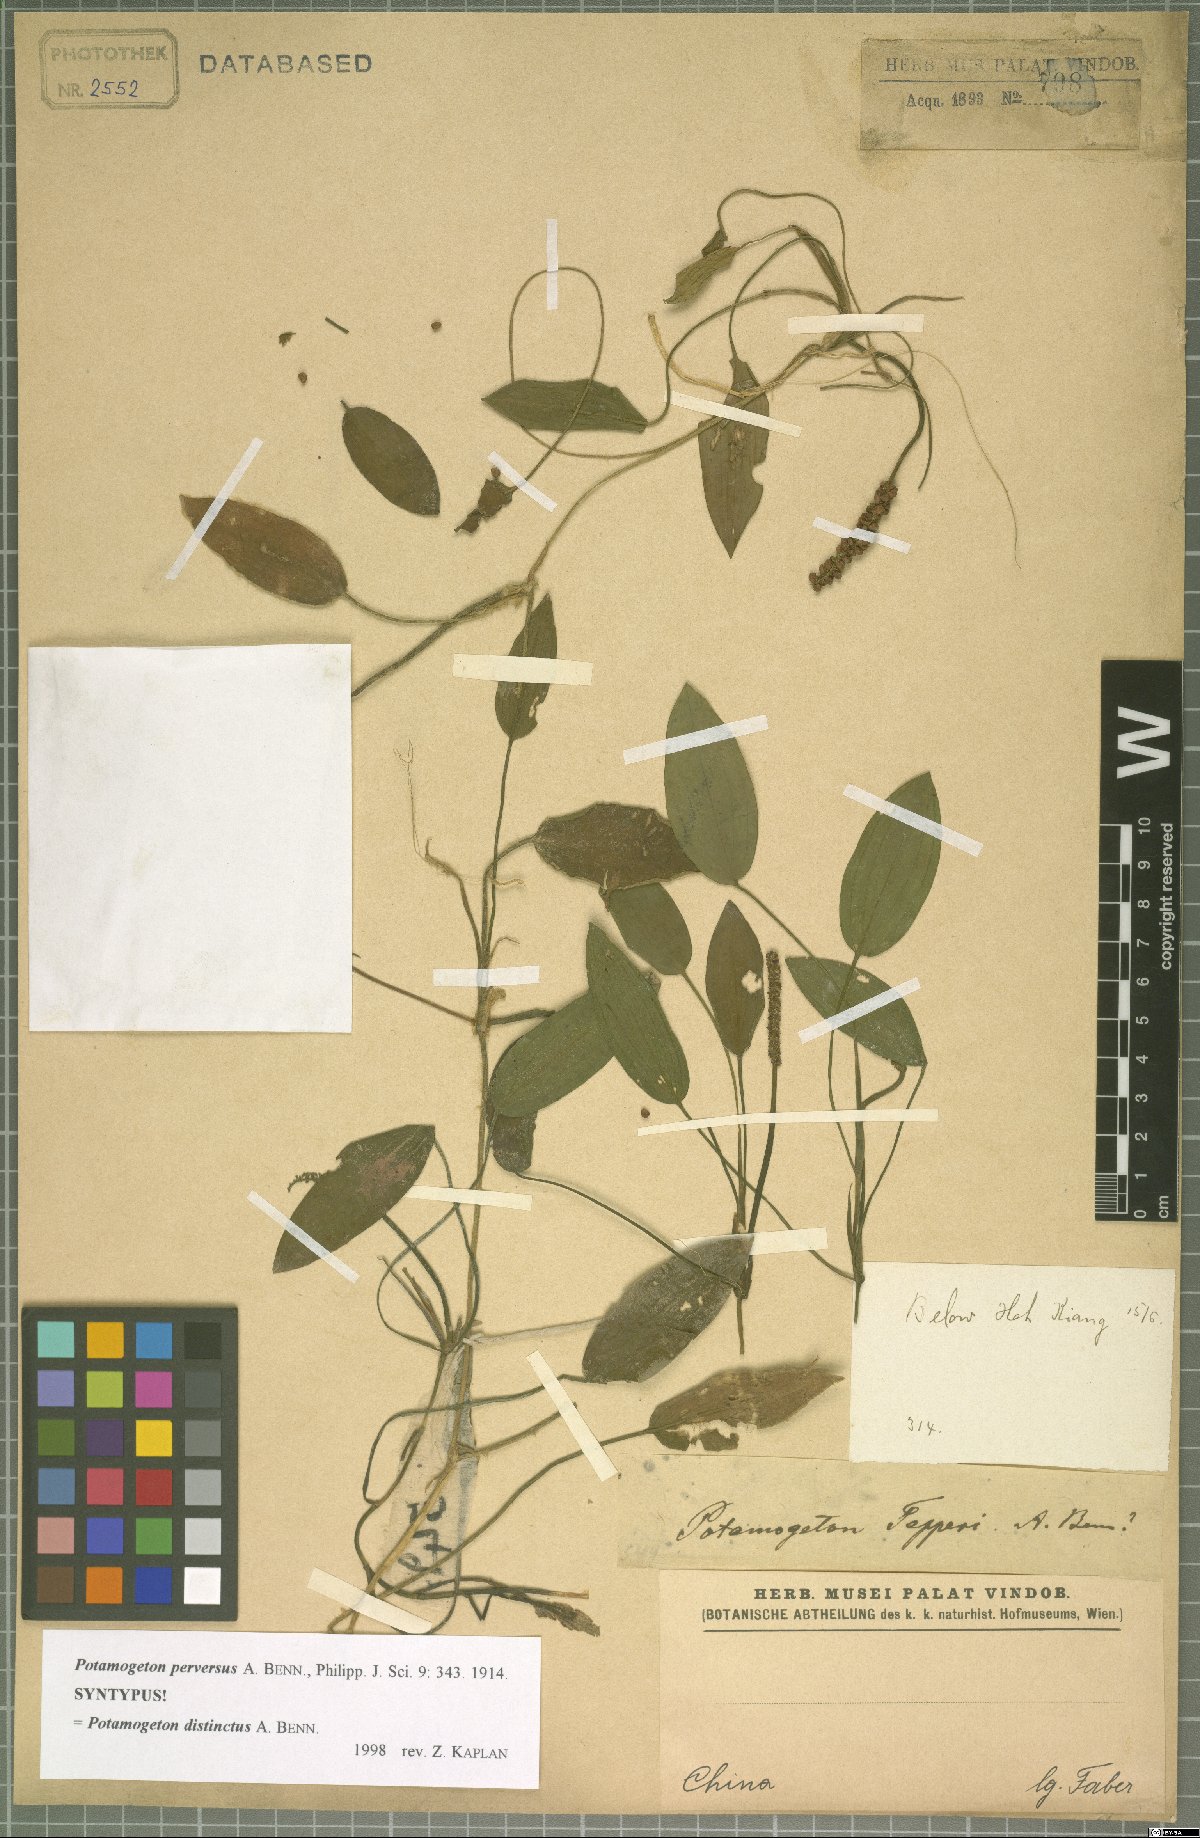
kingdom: Plantae
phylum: Tracheophyta
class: Liliopsida
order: Alismatales
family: Potamogetonaceae
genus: Potamogeton
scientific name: Potamogeton distinctus
